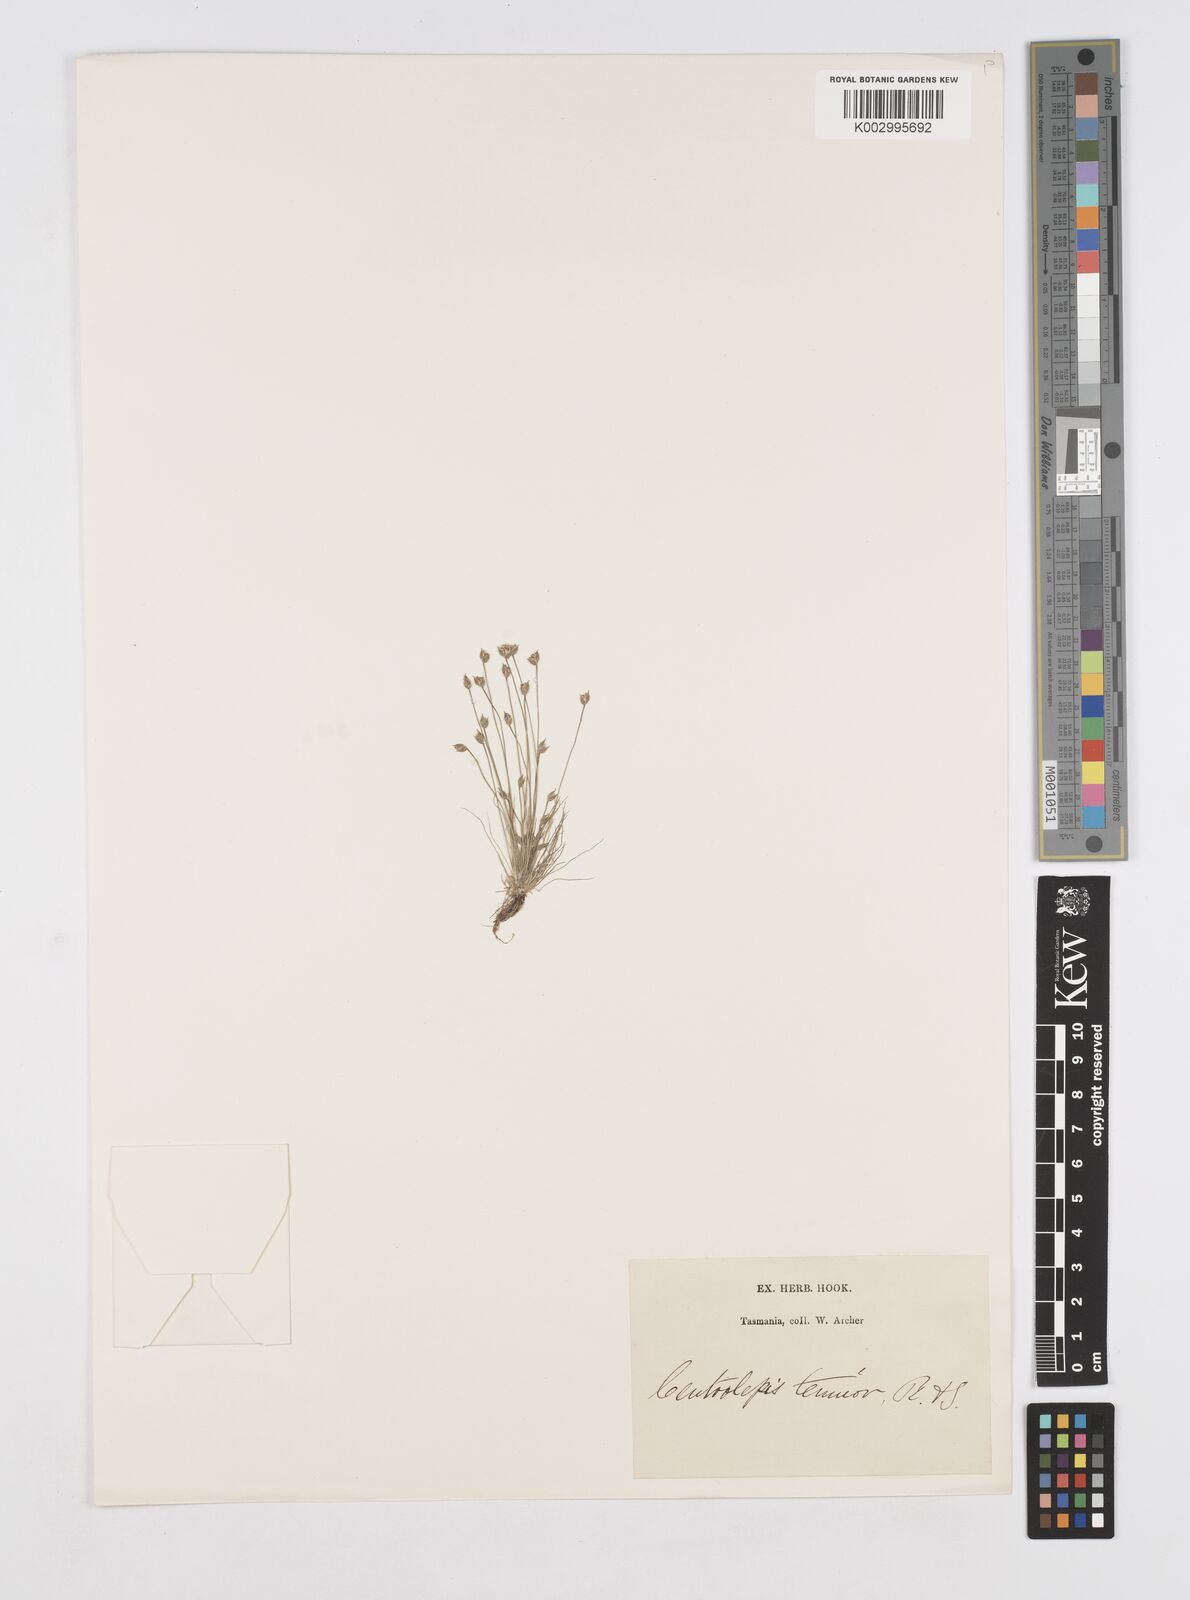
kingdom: Plantae
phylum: Tracheophyta
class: Liliopsida
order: Poales
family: Restionaceae
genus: Centrolepis
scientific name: Centrolepis strigosa
